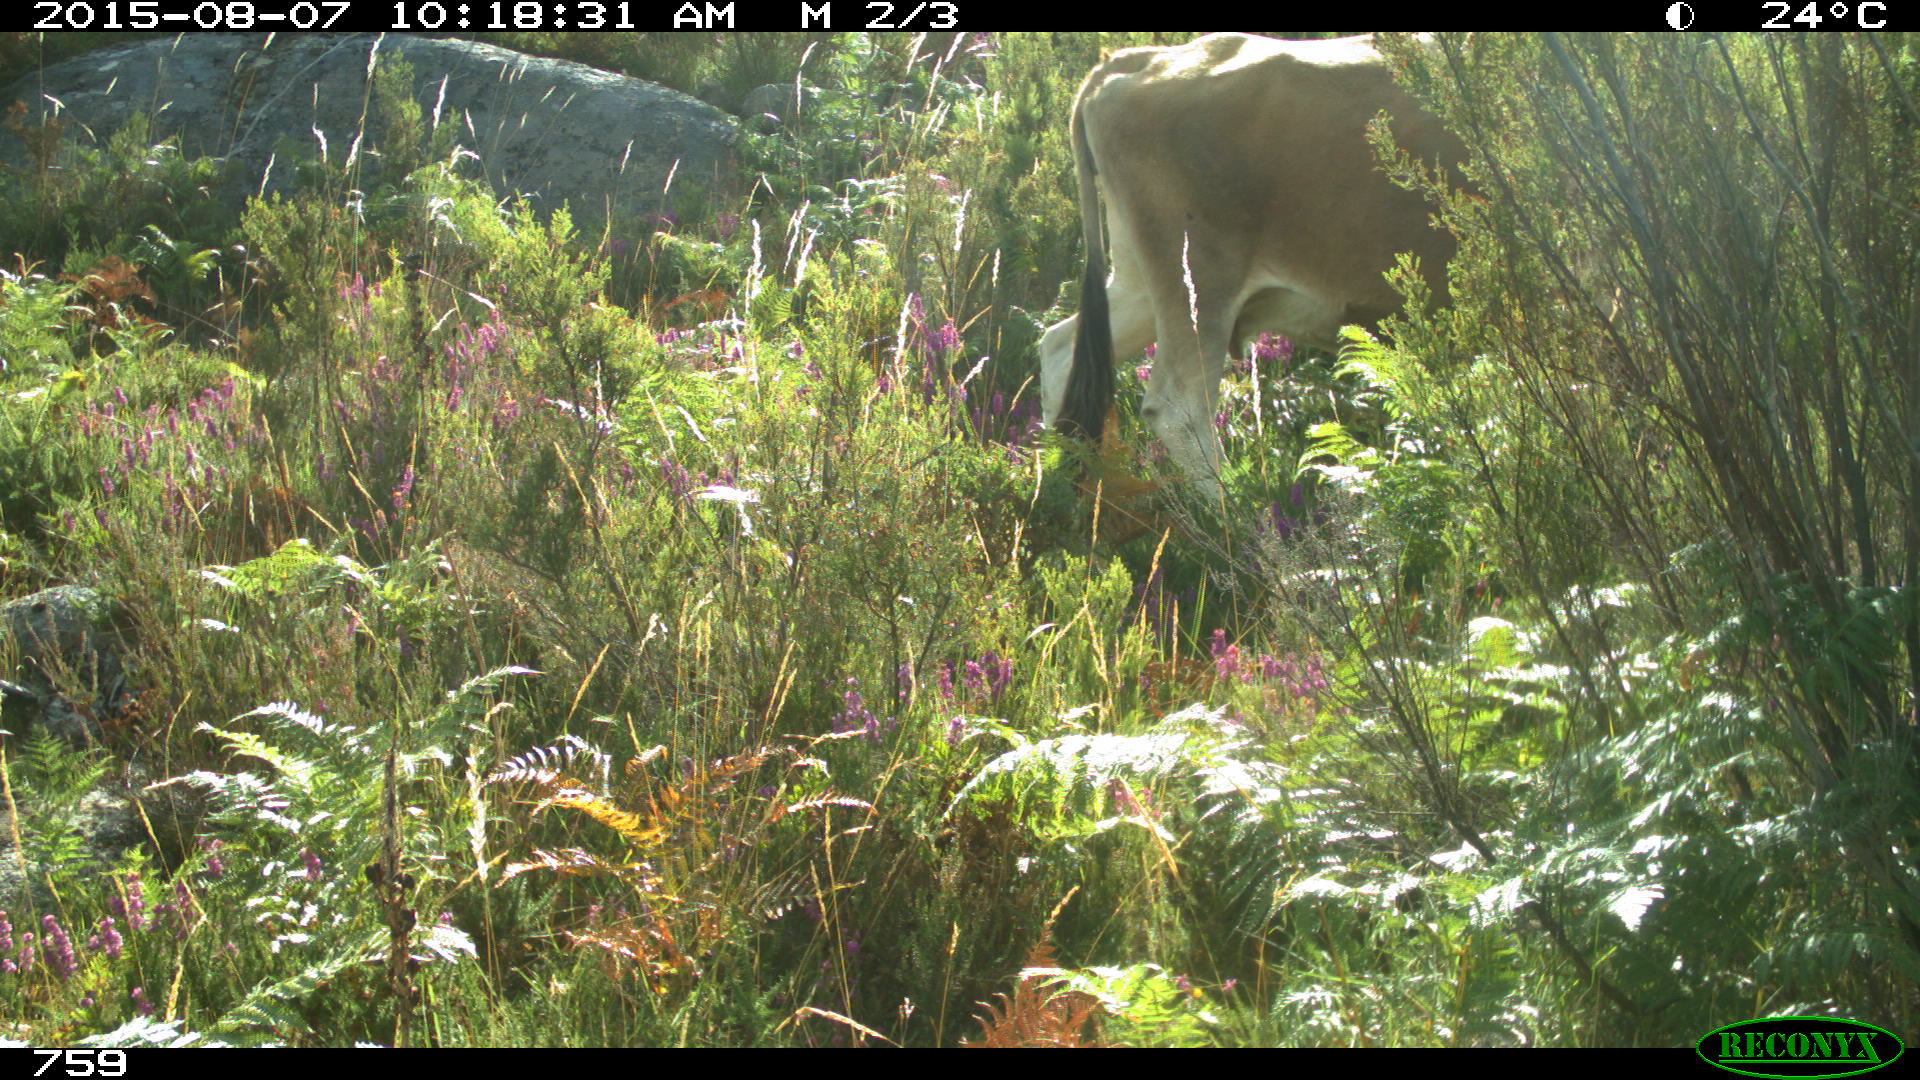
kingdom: Animalia
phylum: Chordata
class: Mammalia
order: Artiodactyla
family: Bovidae
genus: Bos
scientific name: Bos taurus
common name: Domesticated cattle
